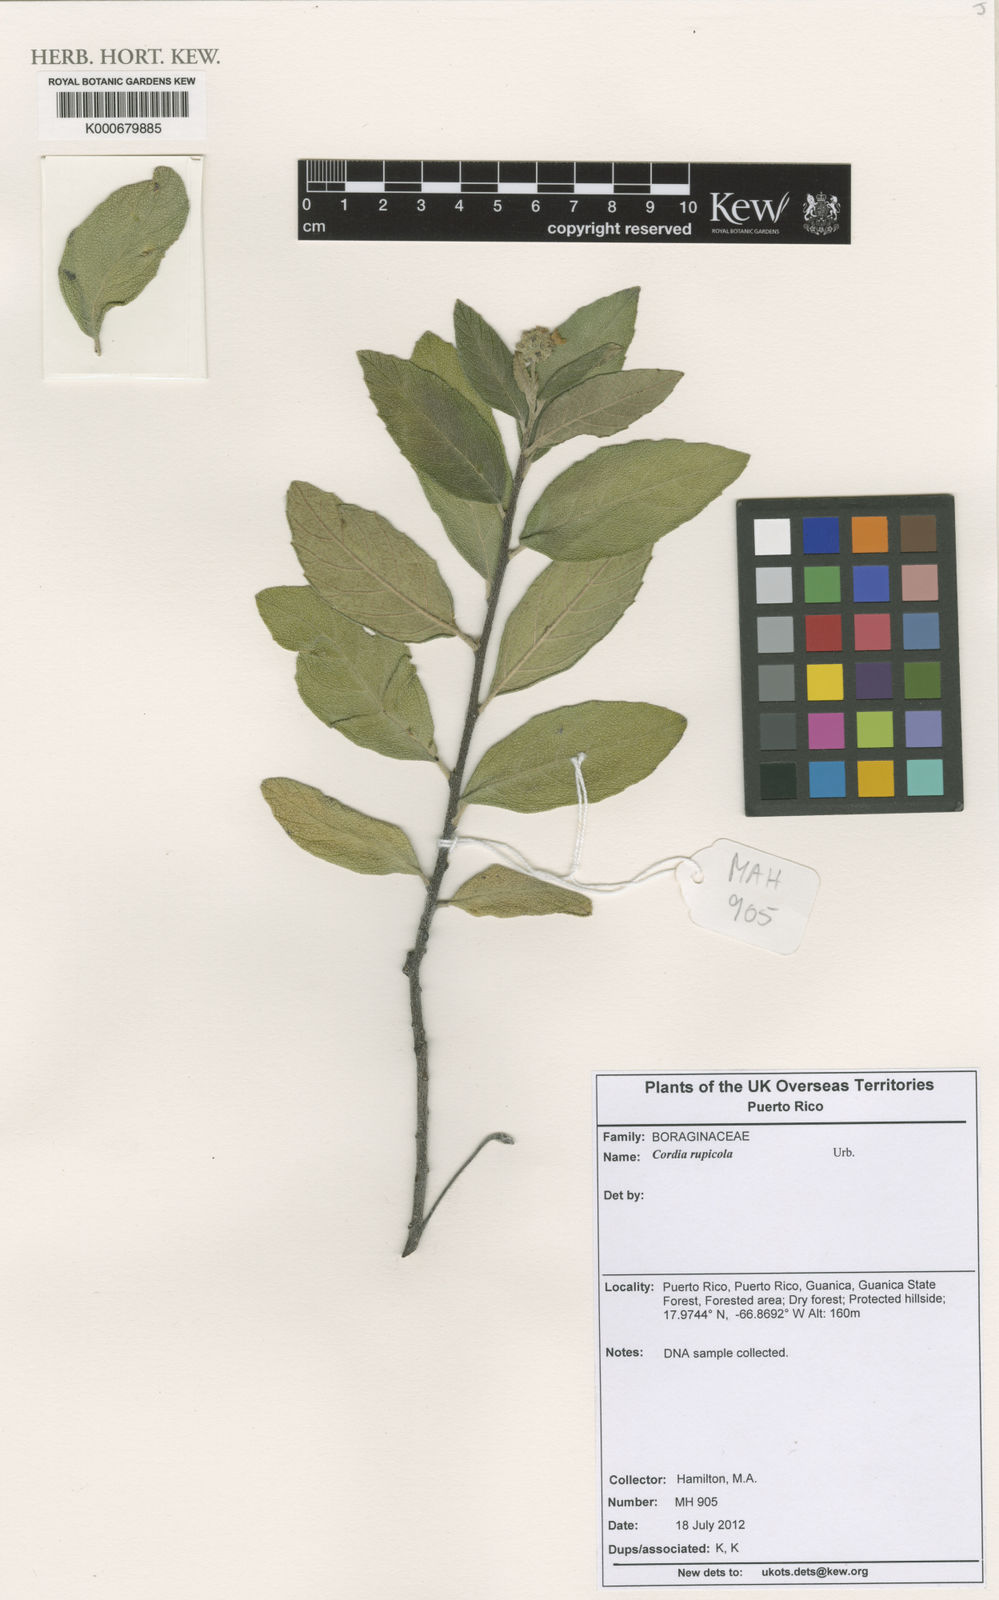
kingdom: Plantae
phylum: Tracheophyta
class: Magnoliopsida
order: Boraginales
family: Cordiaceae
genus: Varronia
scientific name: Varronia rupicola
